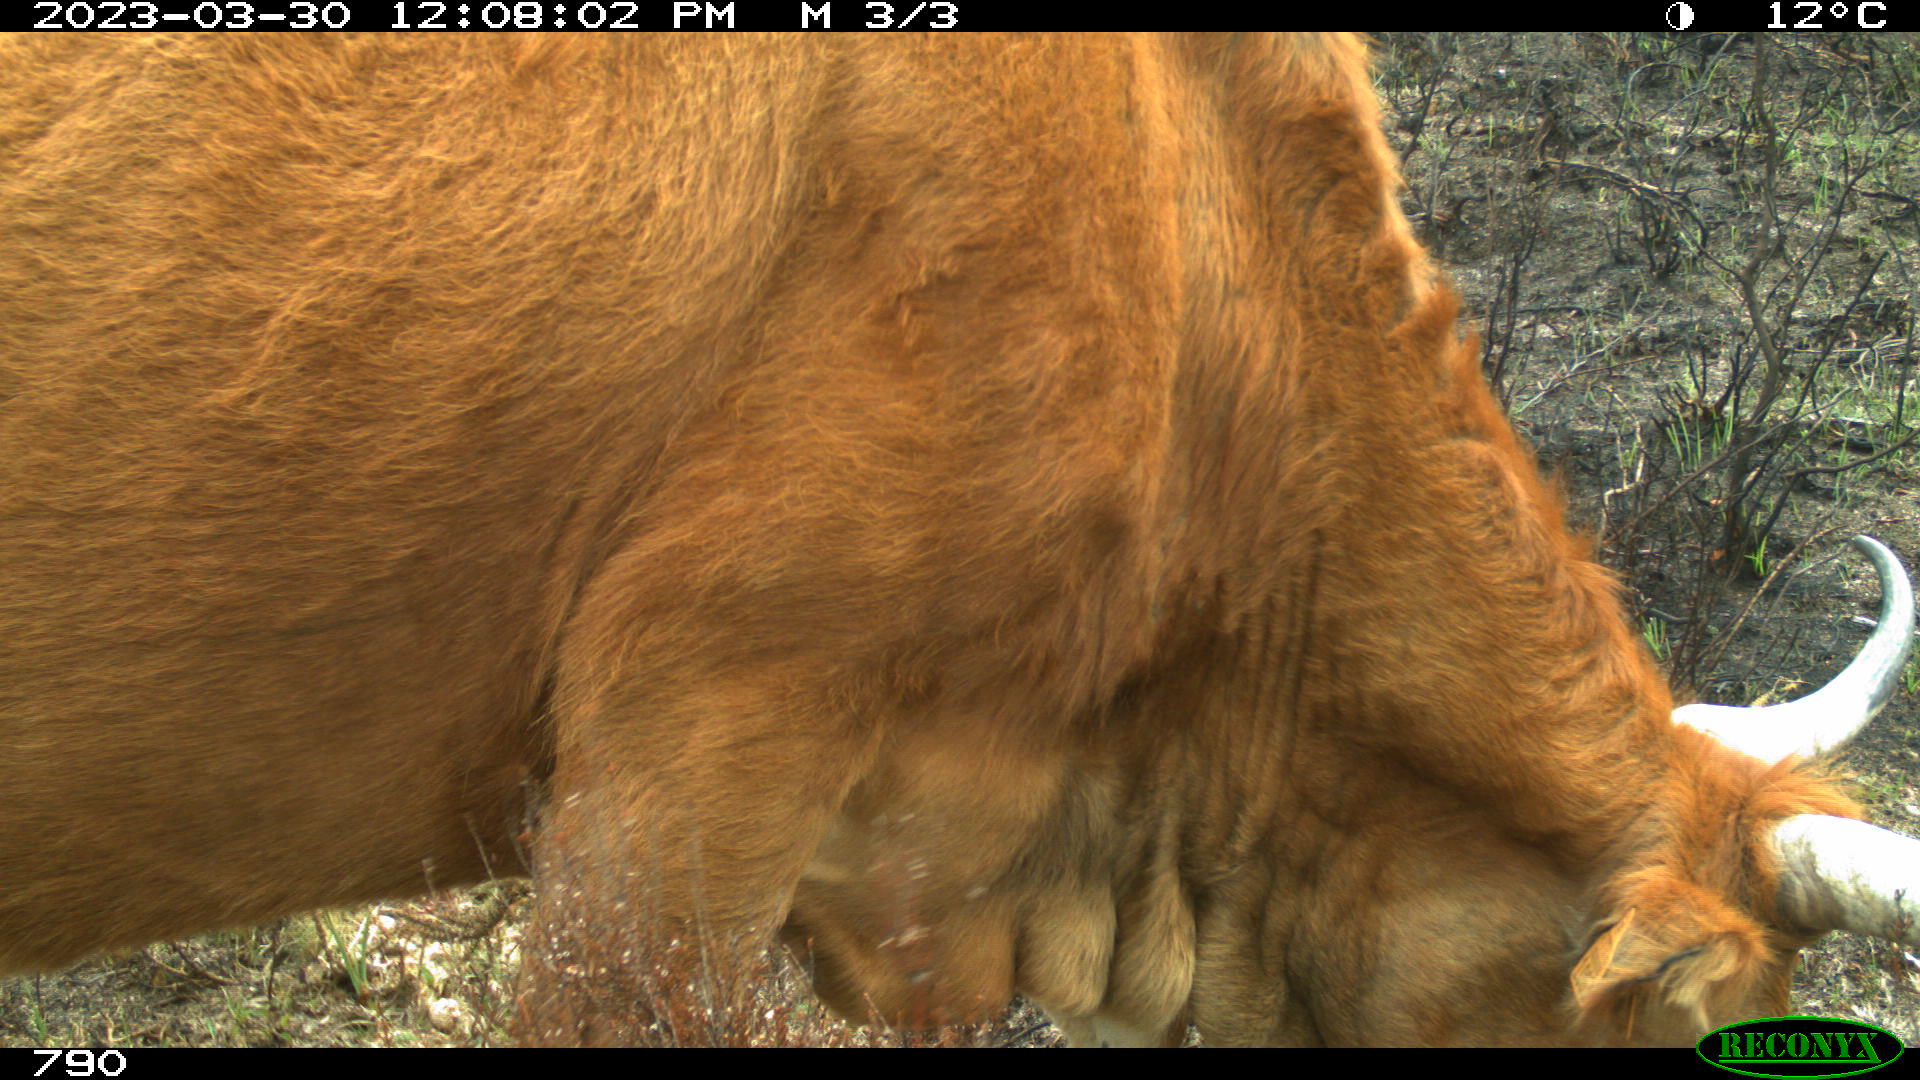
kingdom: Animalia
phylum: Chordata
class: Mammalia
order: Artiodactyla
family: Bovidae
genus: Bos
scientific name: Bos taurus
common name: Domesticated cattle
